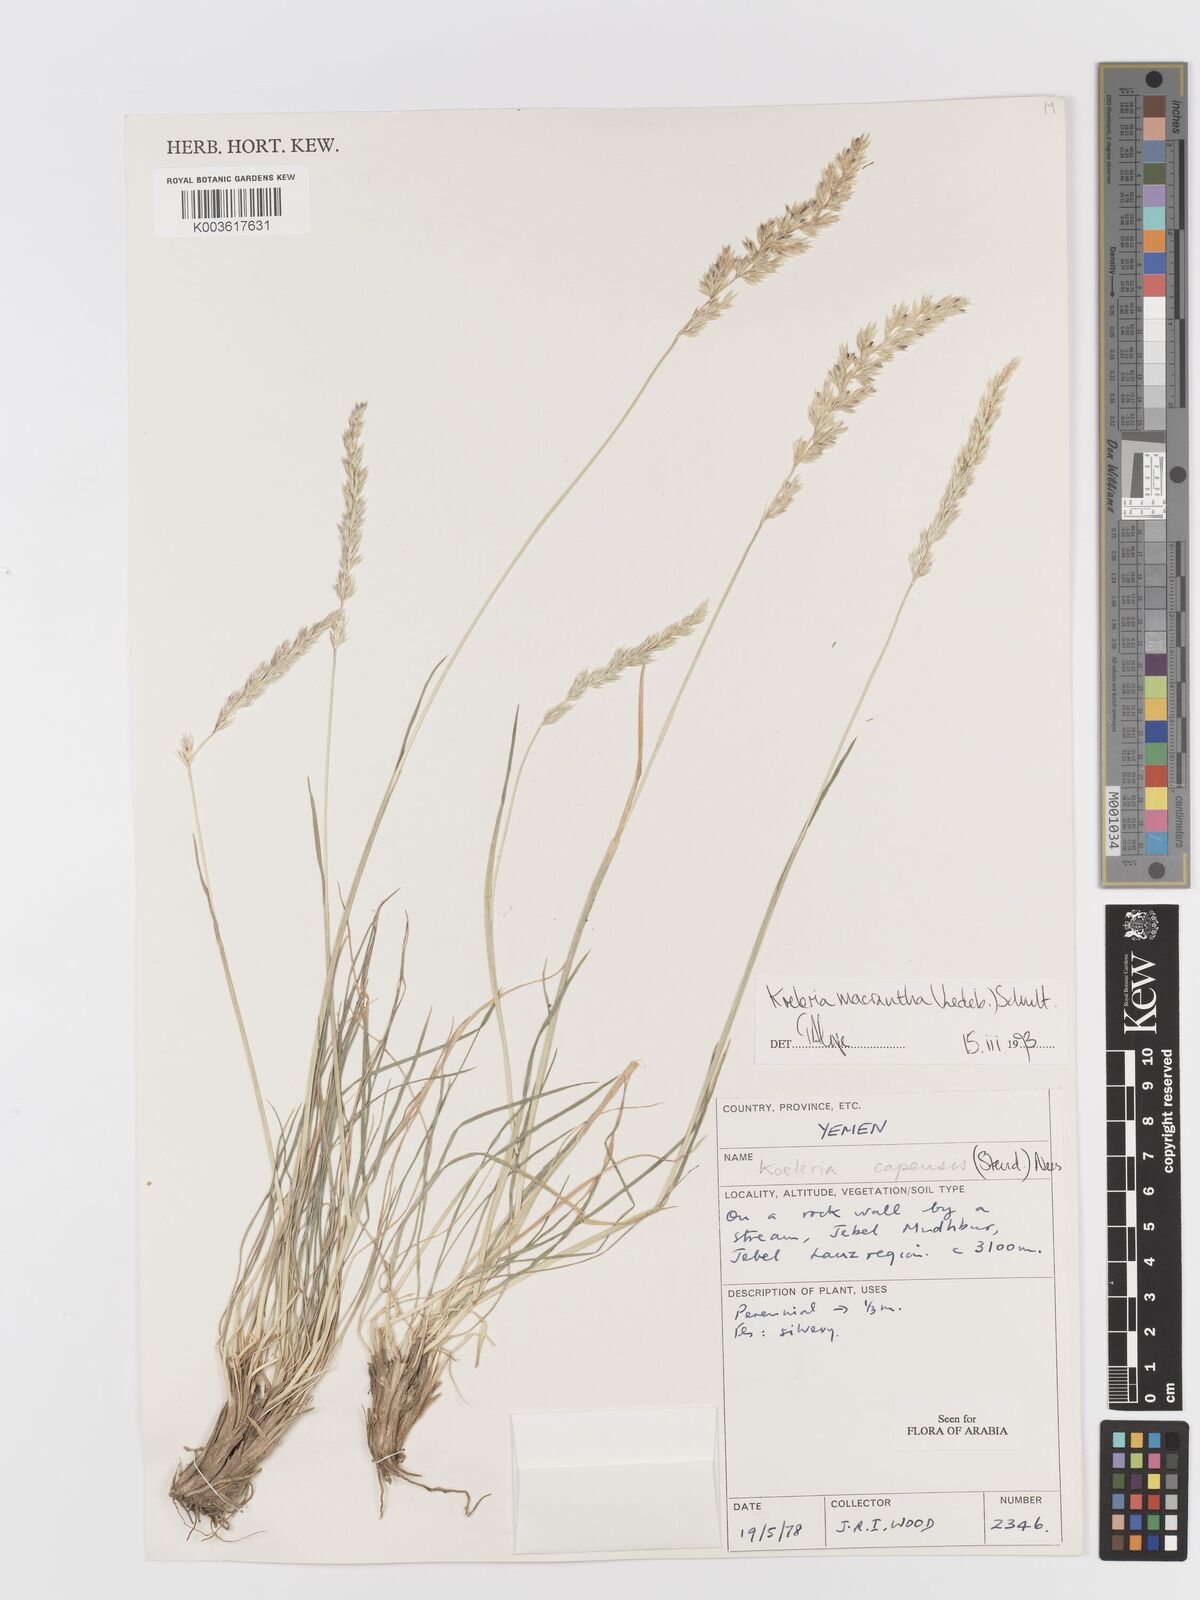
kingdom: Plantae
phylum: Tracheophyta
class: Liliopsida
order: Poales
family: Poaceae
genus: Koeleria
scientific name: Koeleria macrantha
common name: Crested hair-grass
